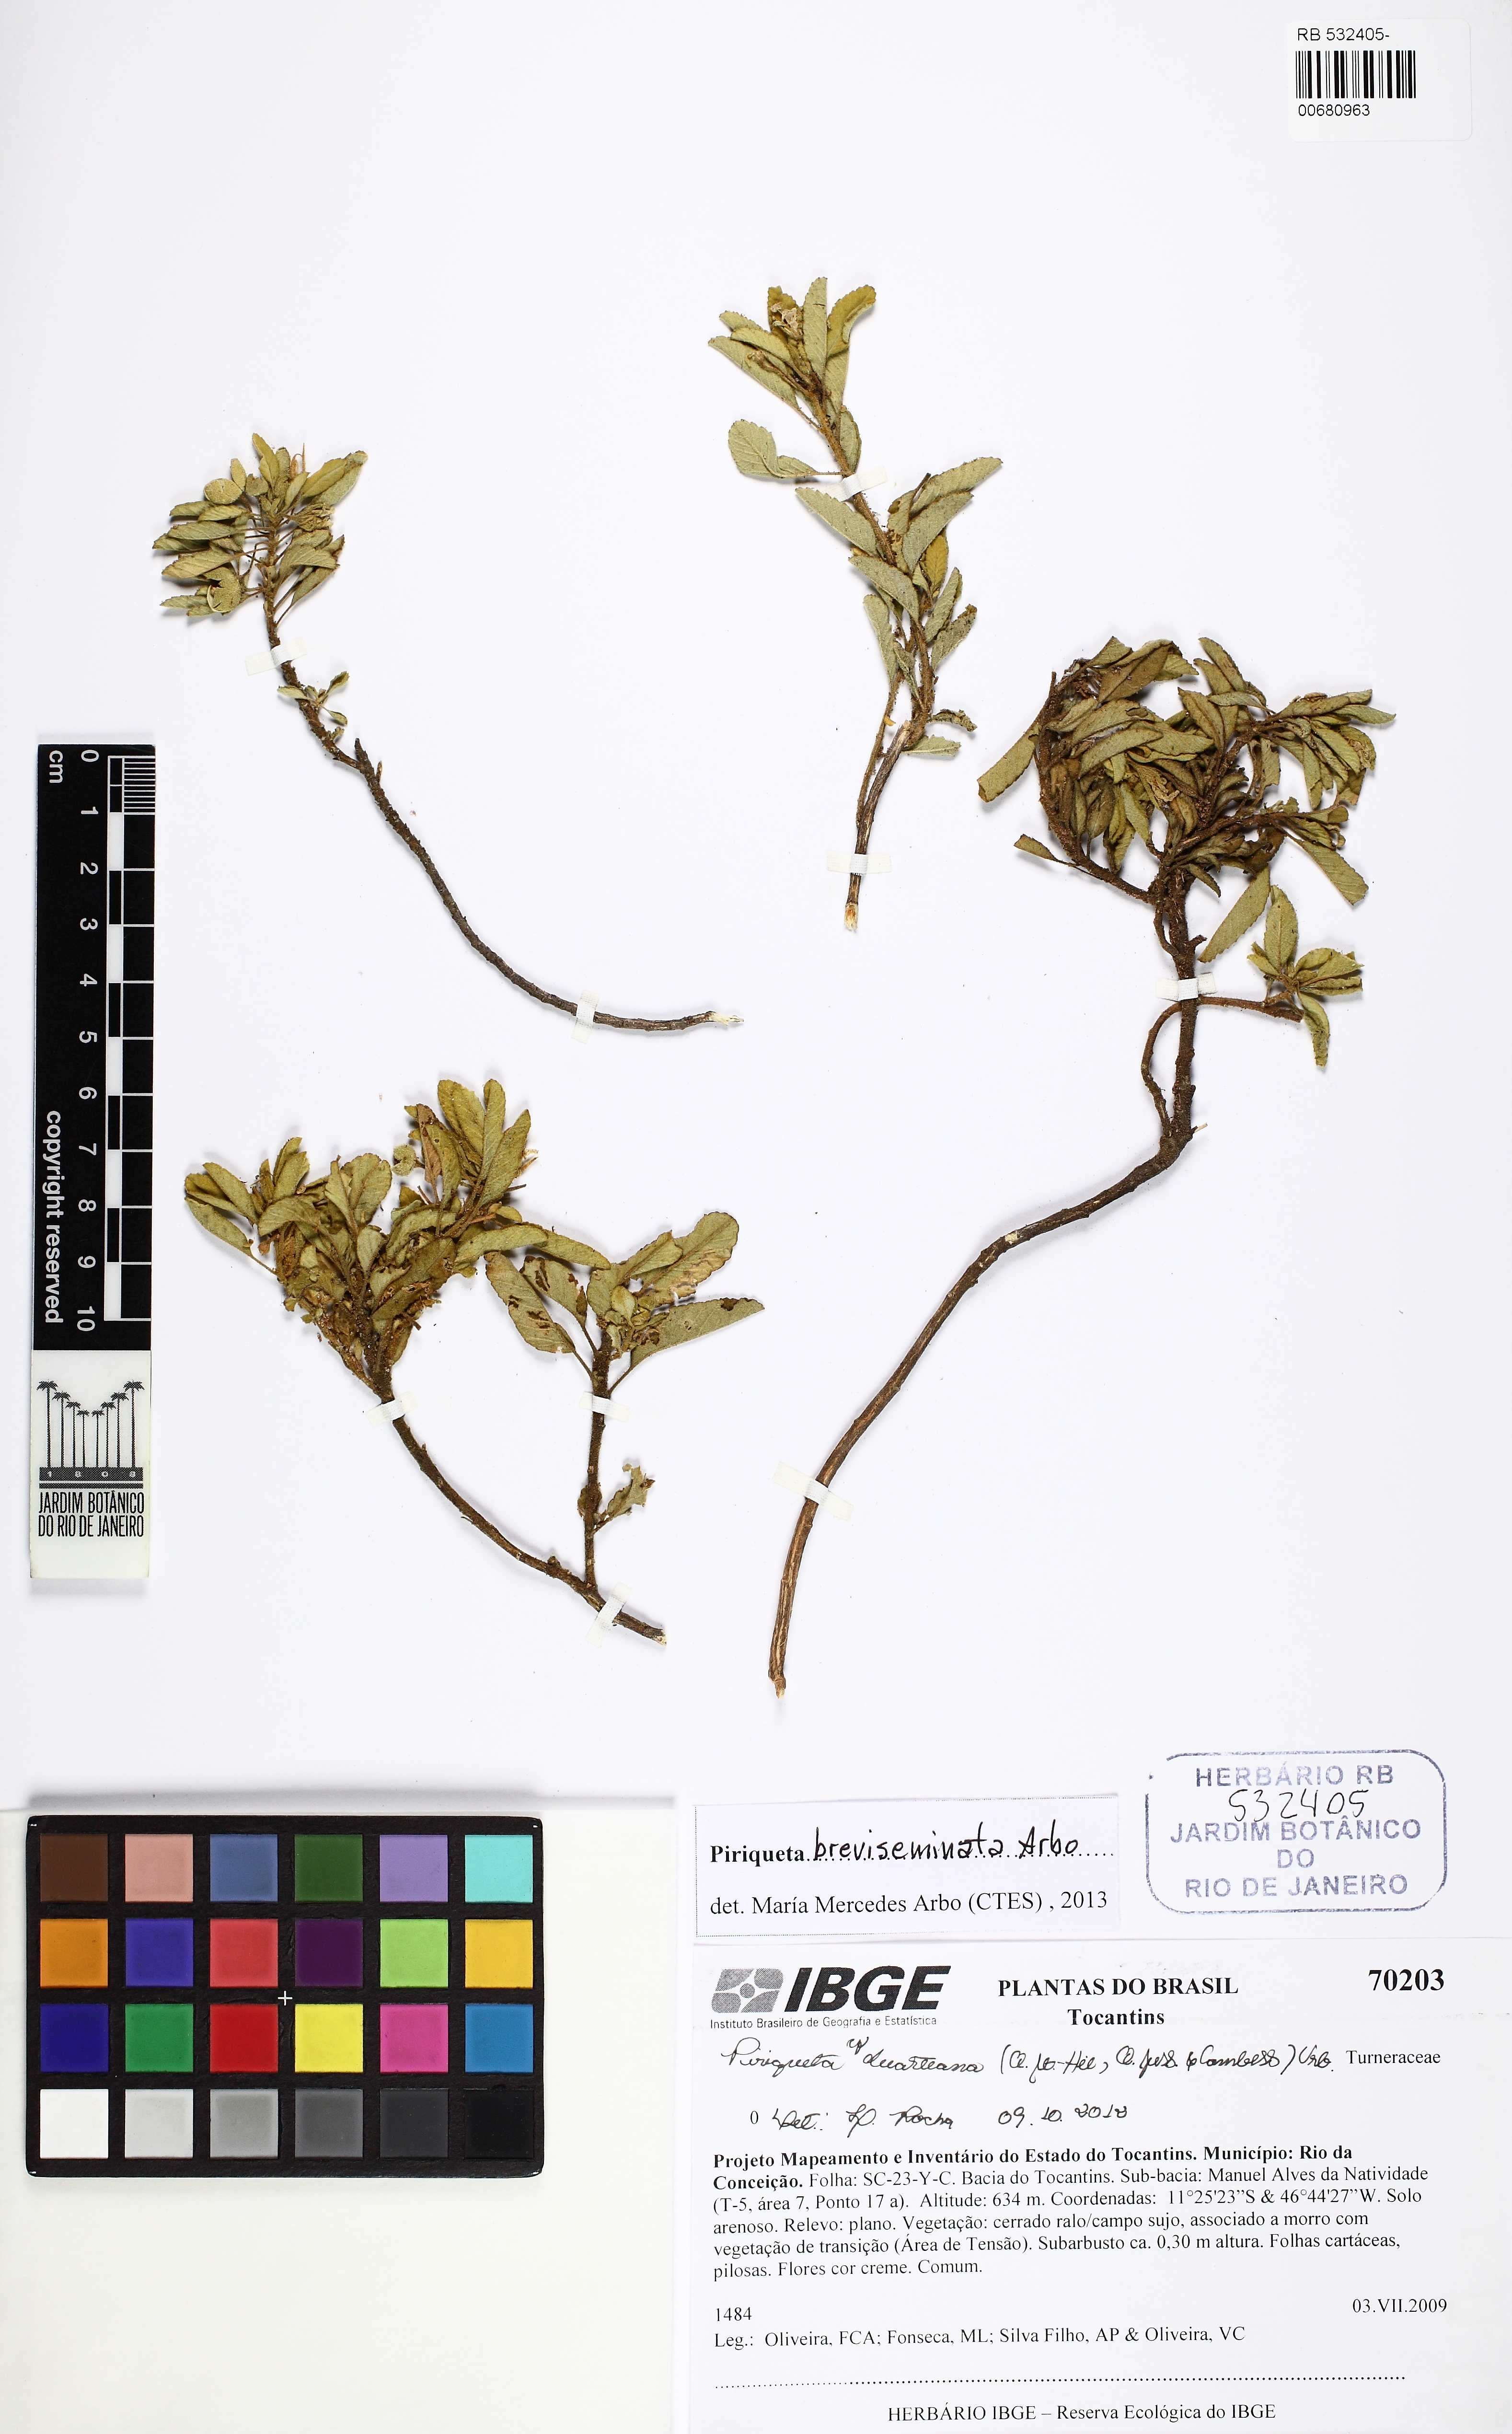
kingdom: Plantae
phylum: Tracheophyta
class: Magnoliopsida
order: Malpighiales
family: Turneraceae
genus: Piriqueta
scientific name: Piriqueta breviseminata
